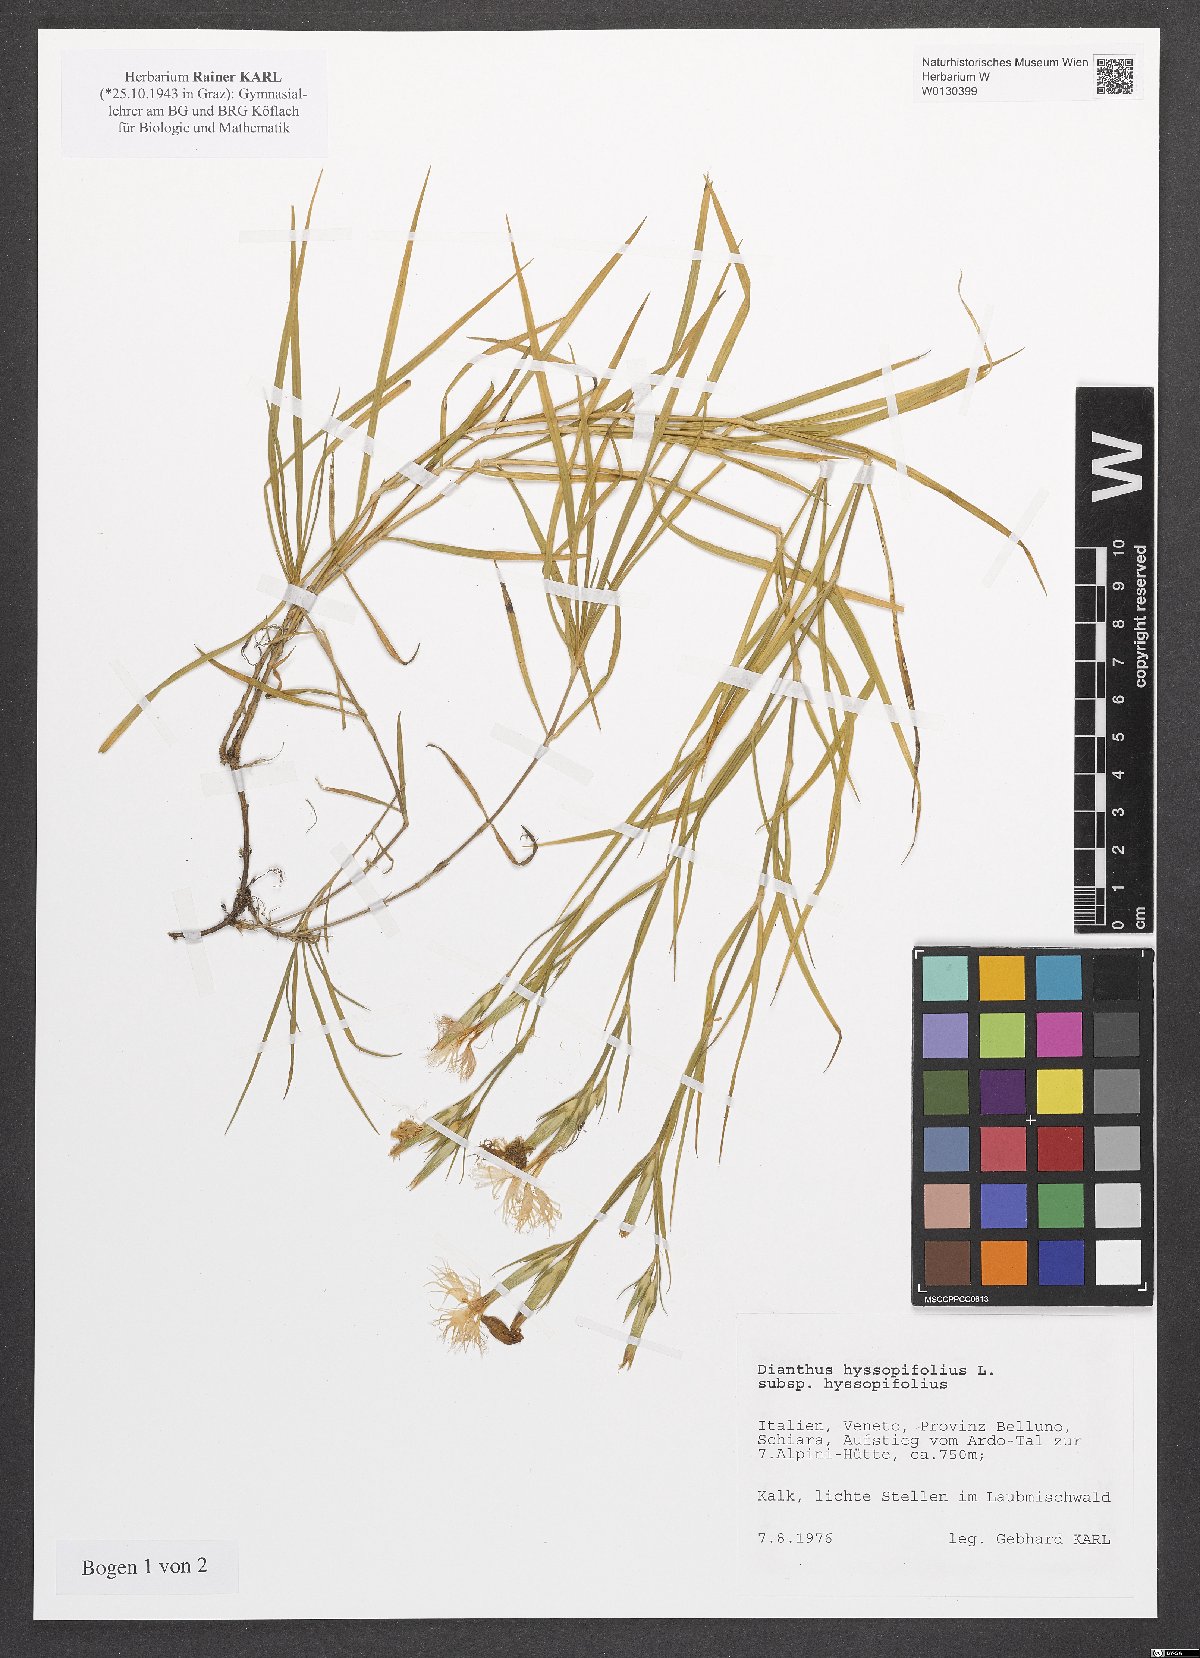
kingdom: Plantae
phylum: Tracheophyta
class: Magnoliopsida
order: Caryophyllales
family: Caryophyllaceae
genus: Dianthus
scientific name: Dianthus hyssopifolius
